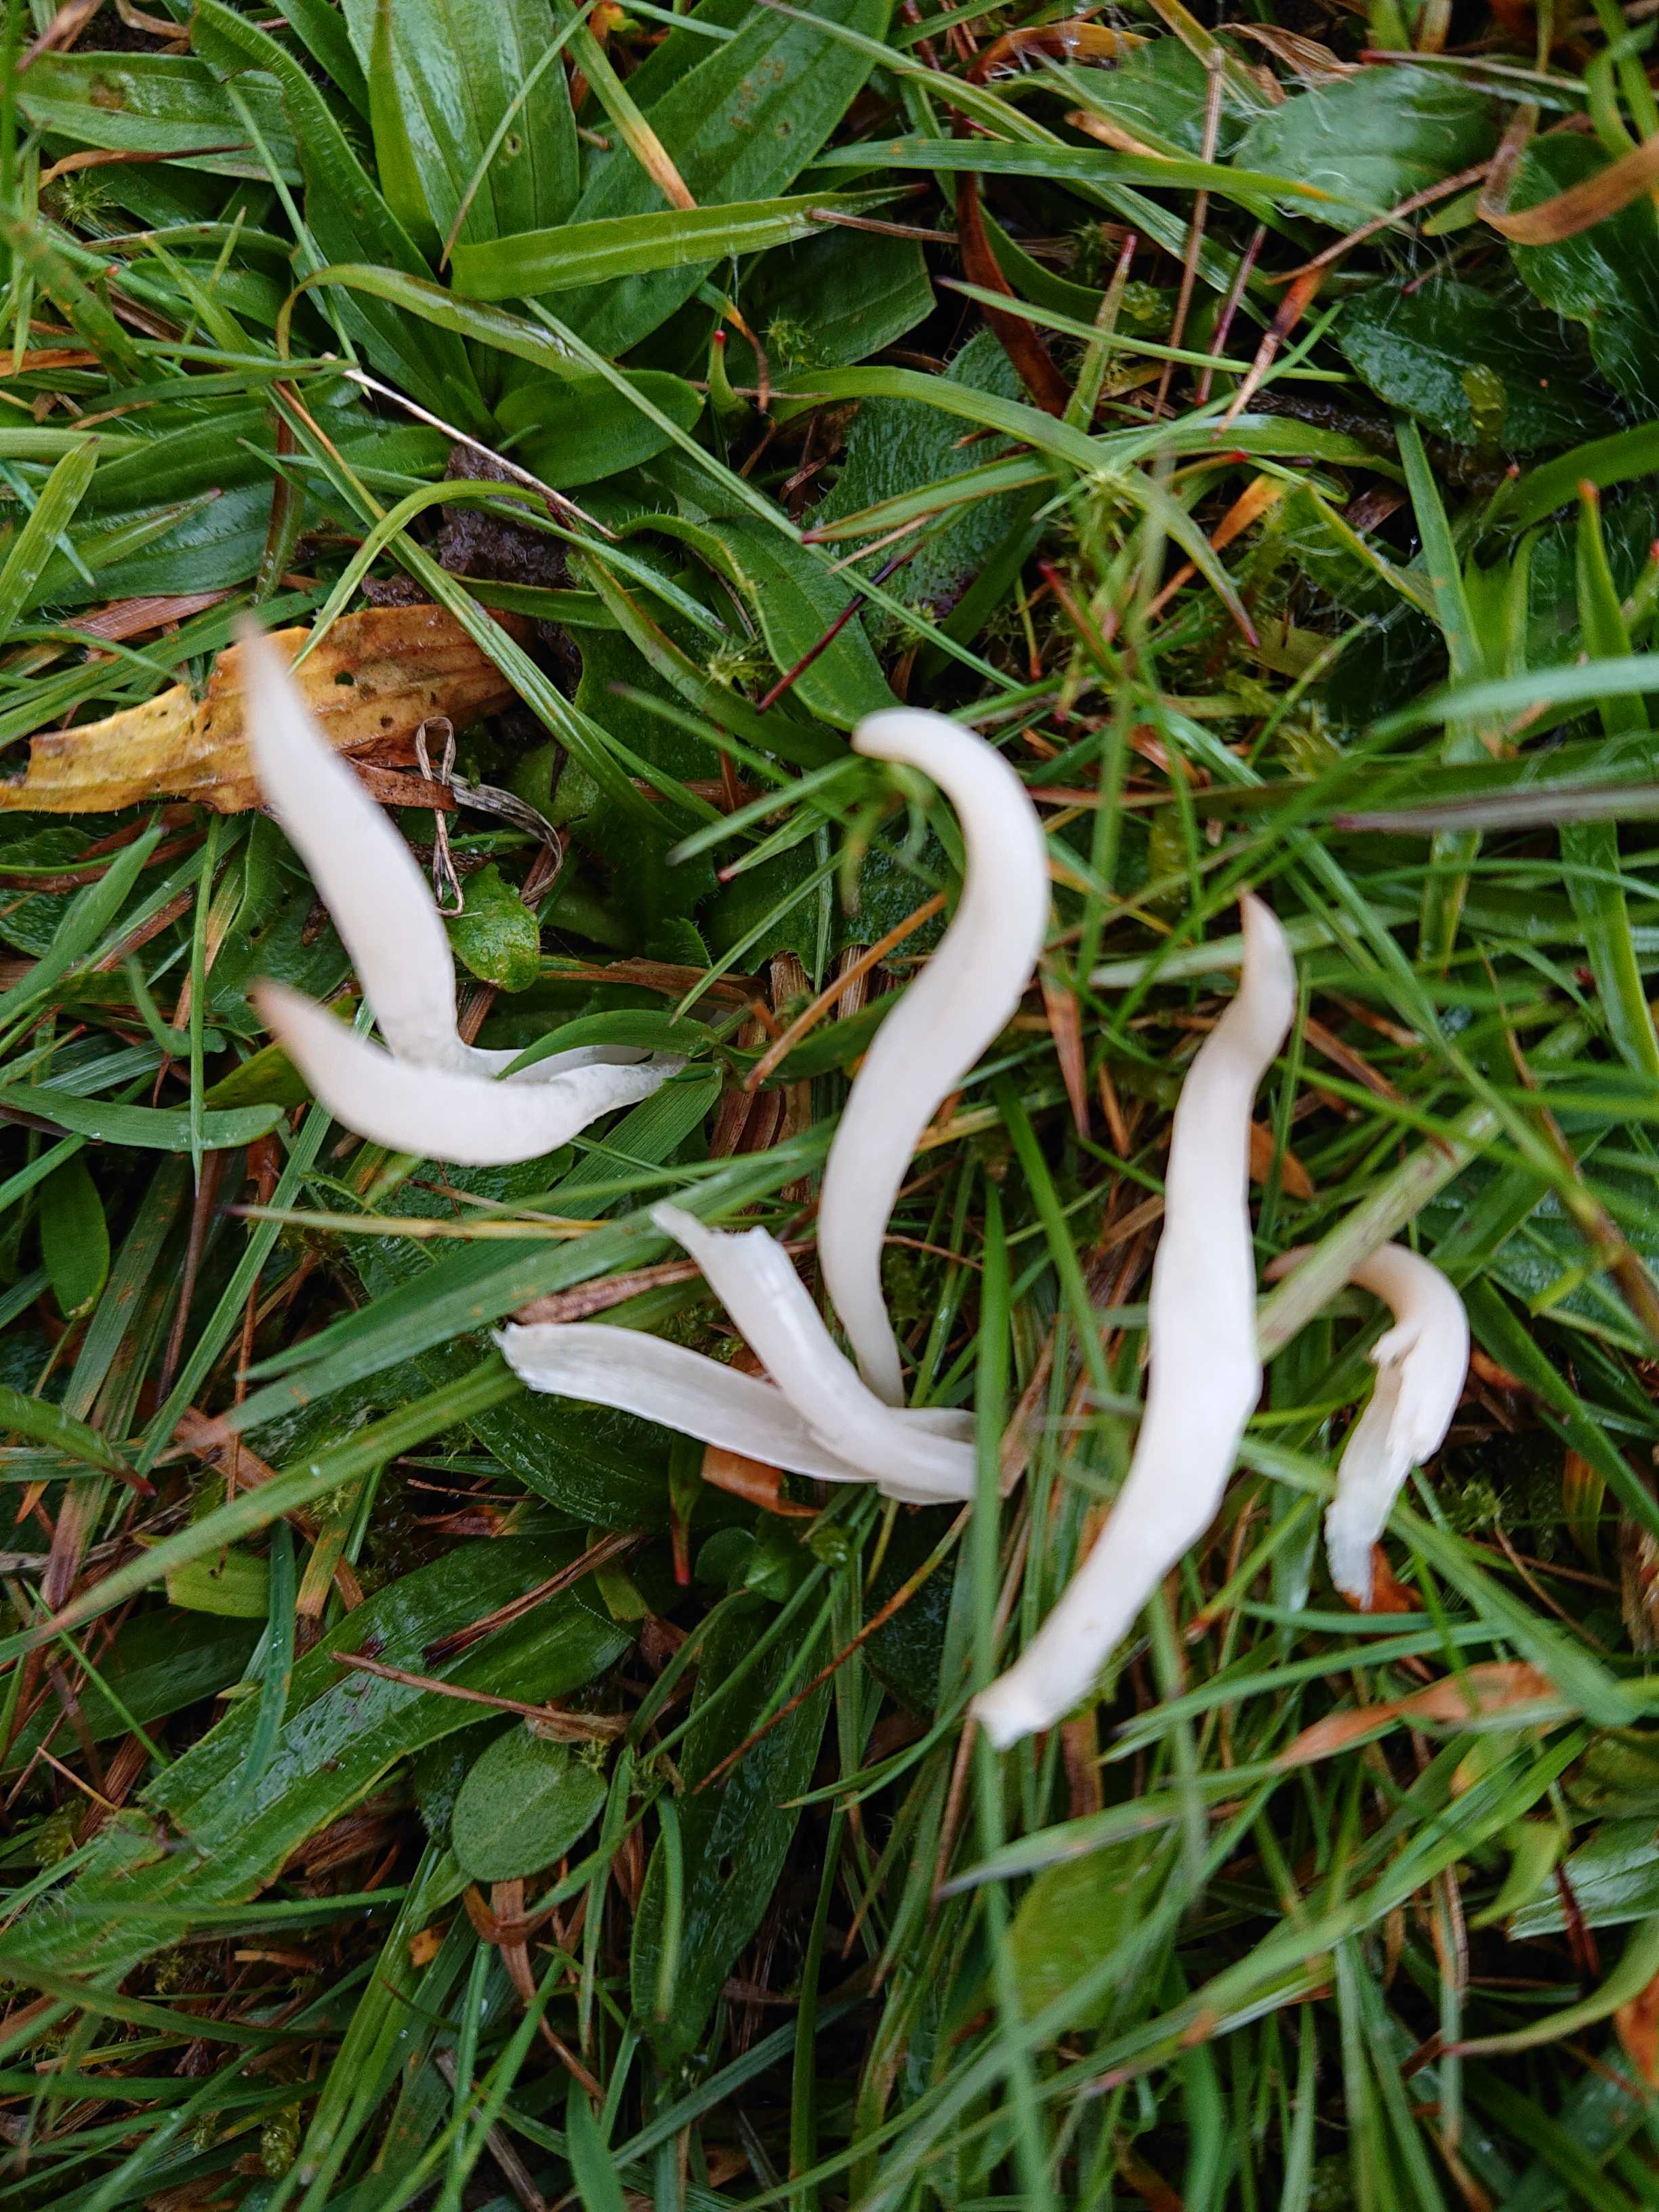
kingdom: Fungi
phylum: Basidiomycota
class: Agaricomycetes
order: Agaricales
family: Clavariaceae
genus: Clavaria
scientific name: Clavaria falcata
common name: hvid køllesvamp
